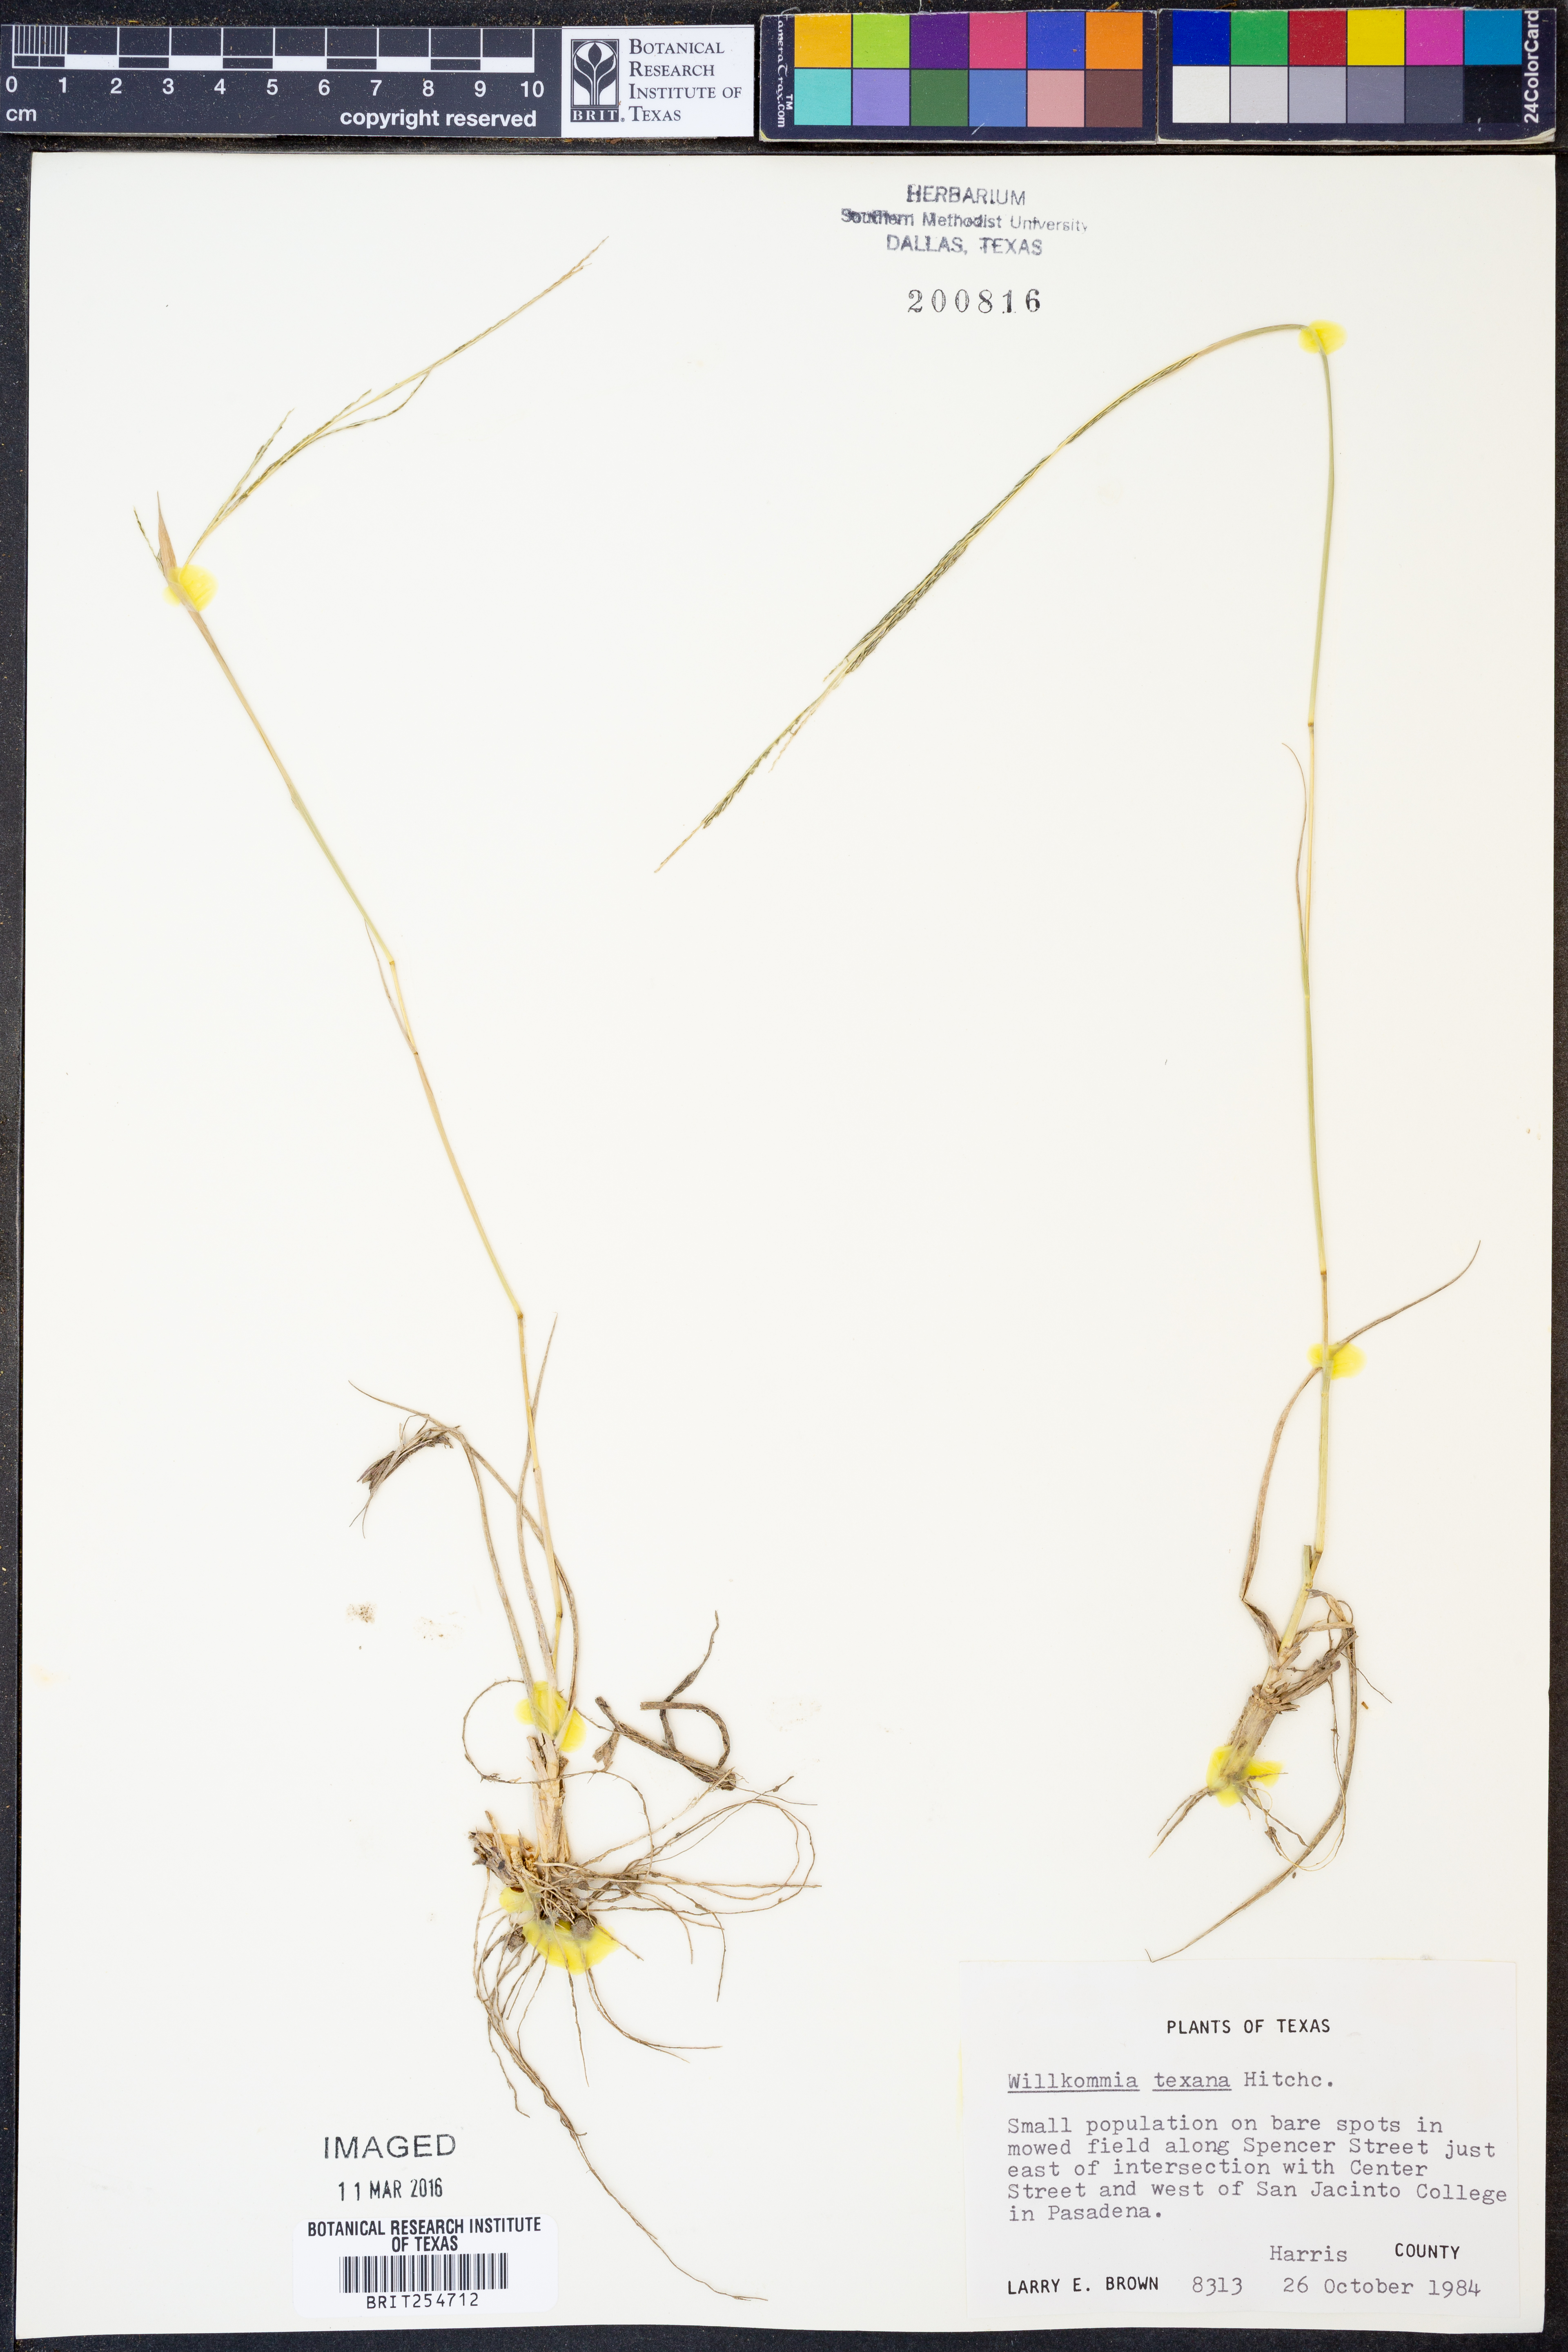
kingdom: Plantae
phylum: Tracheophyta
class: Liliopsida
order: Poales
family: Poaceae
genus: Willkommia
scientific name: Willkommia texana
